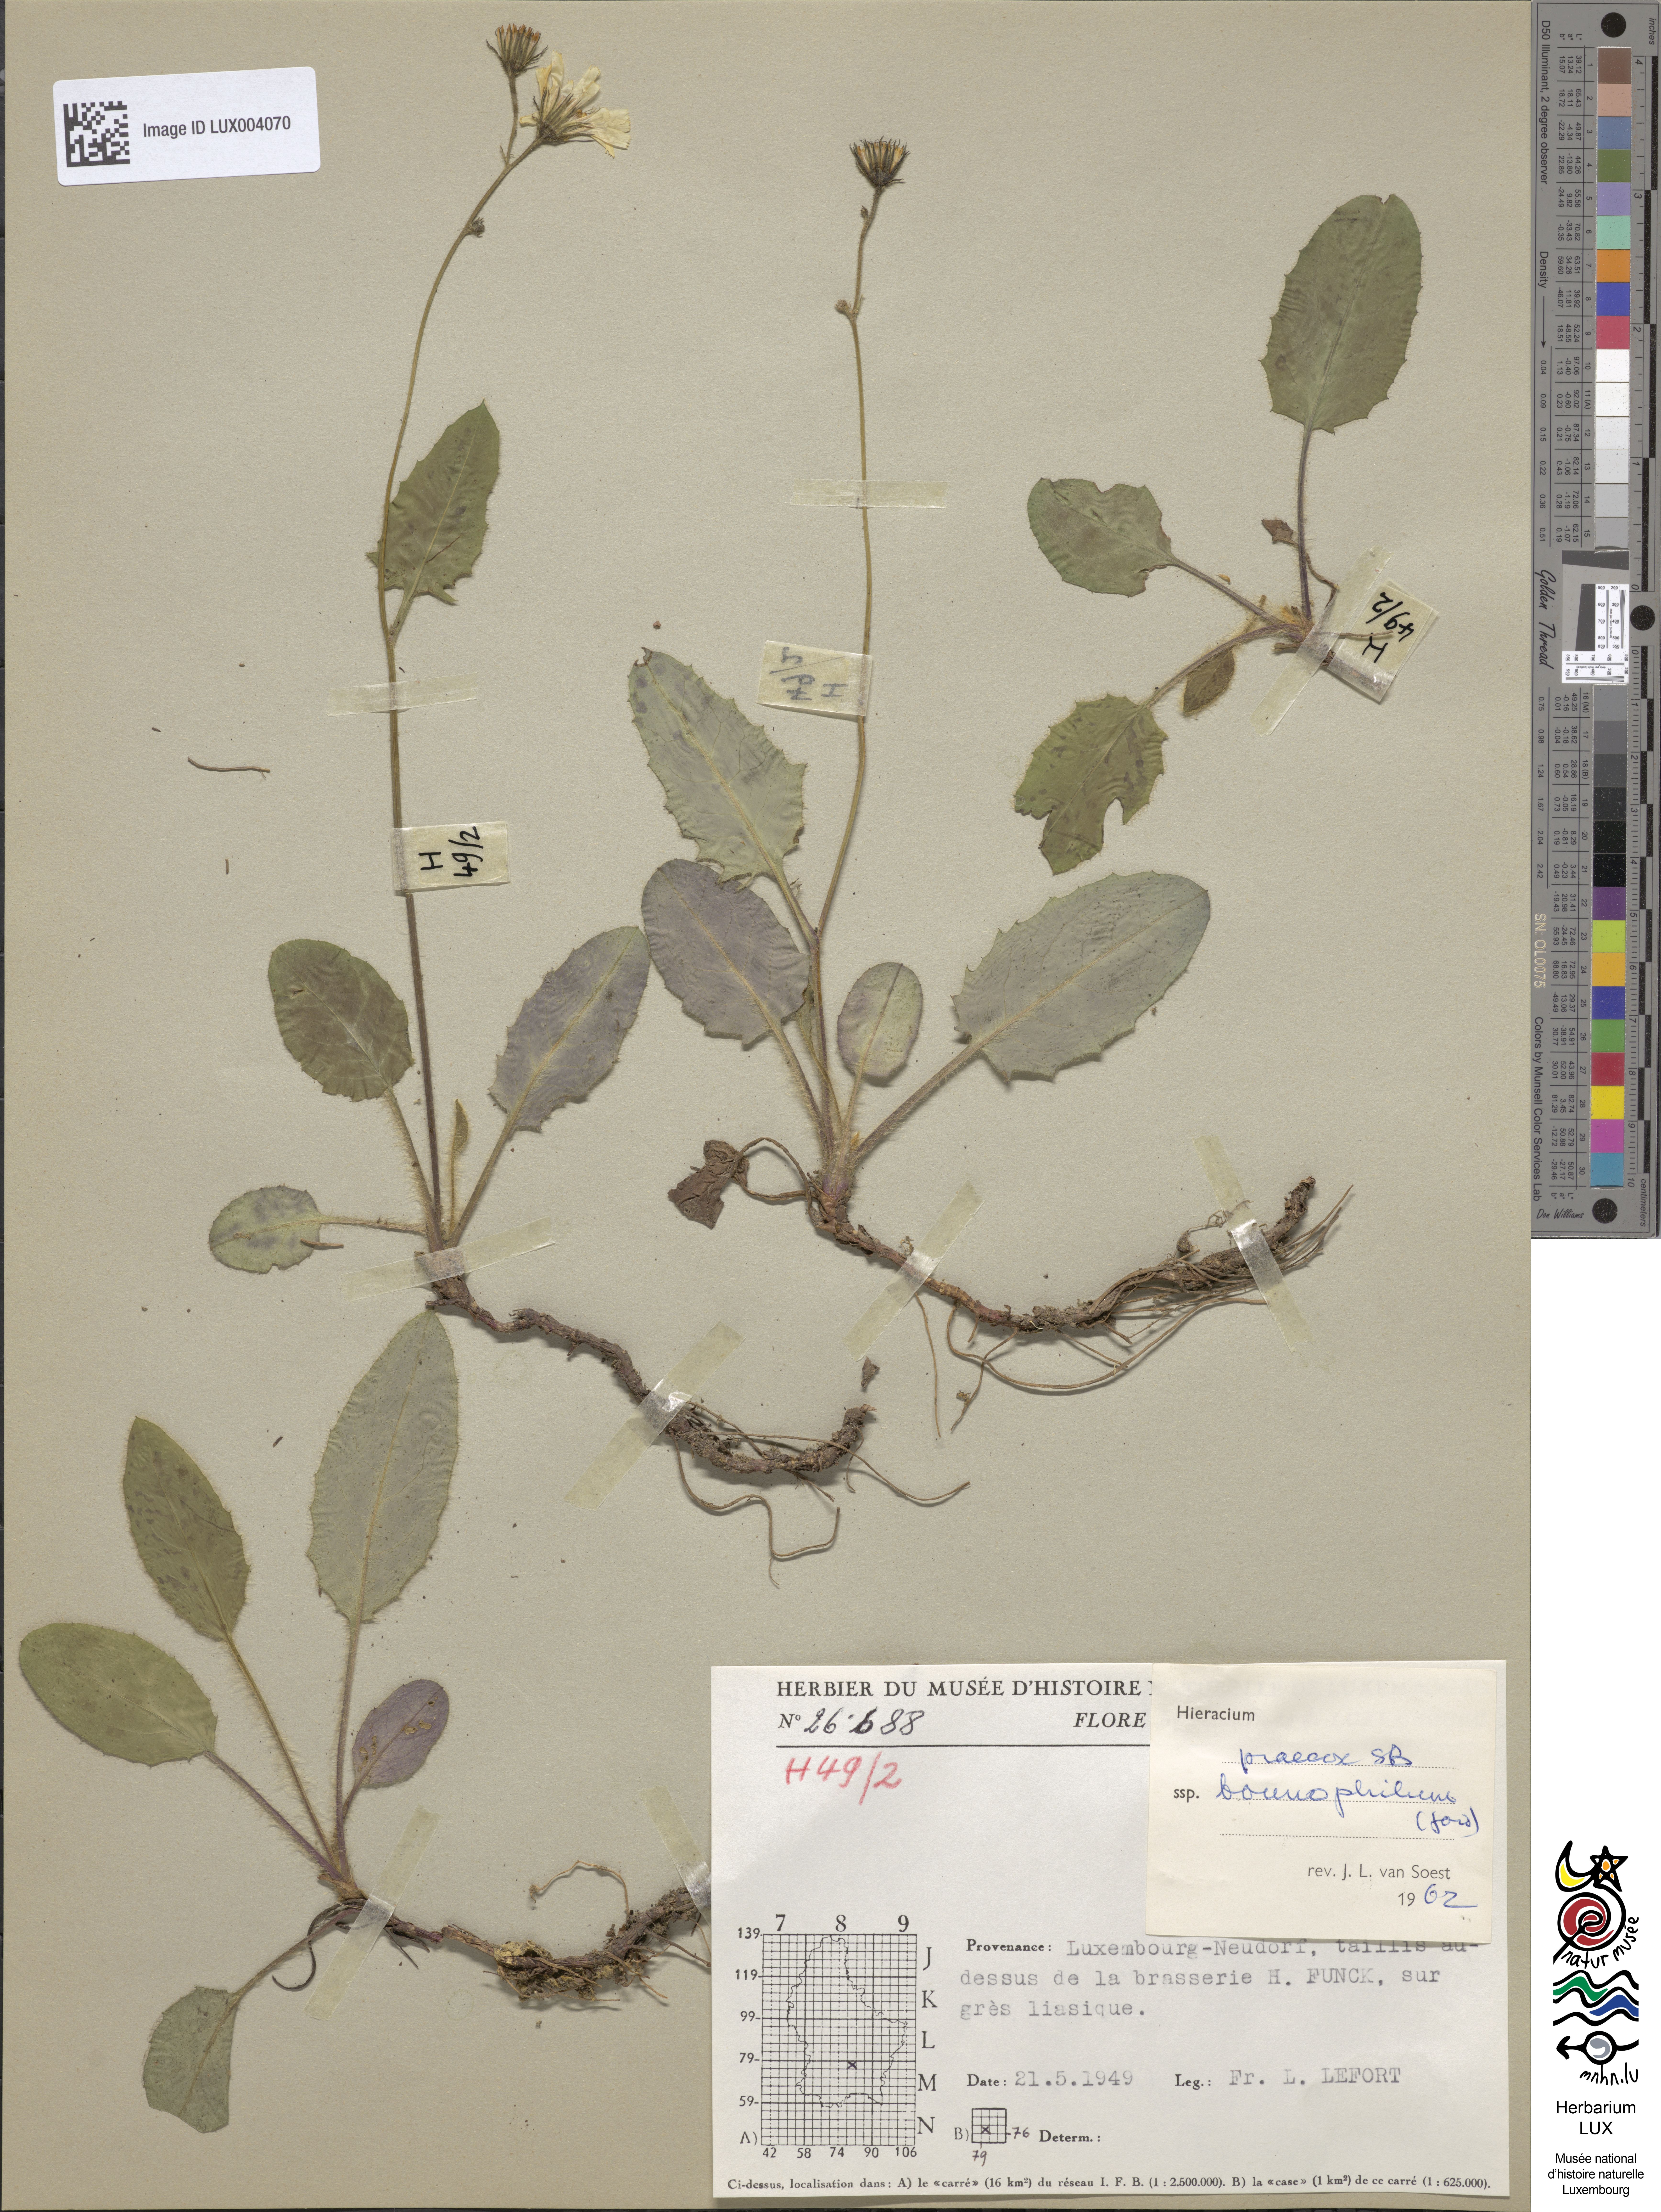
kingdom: Plantae
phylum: Tracheophyta
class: Magnoliopsida
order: Asterales
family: Asteraceae
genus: Hieracium
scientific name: Hieracium glaucinum
